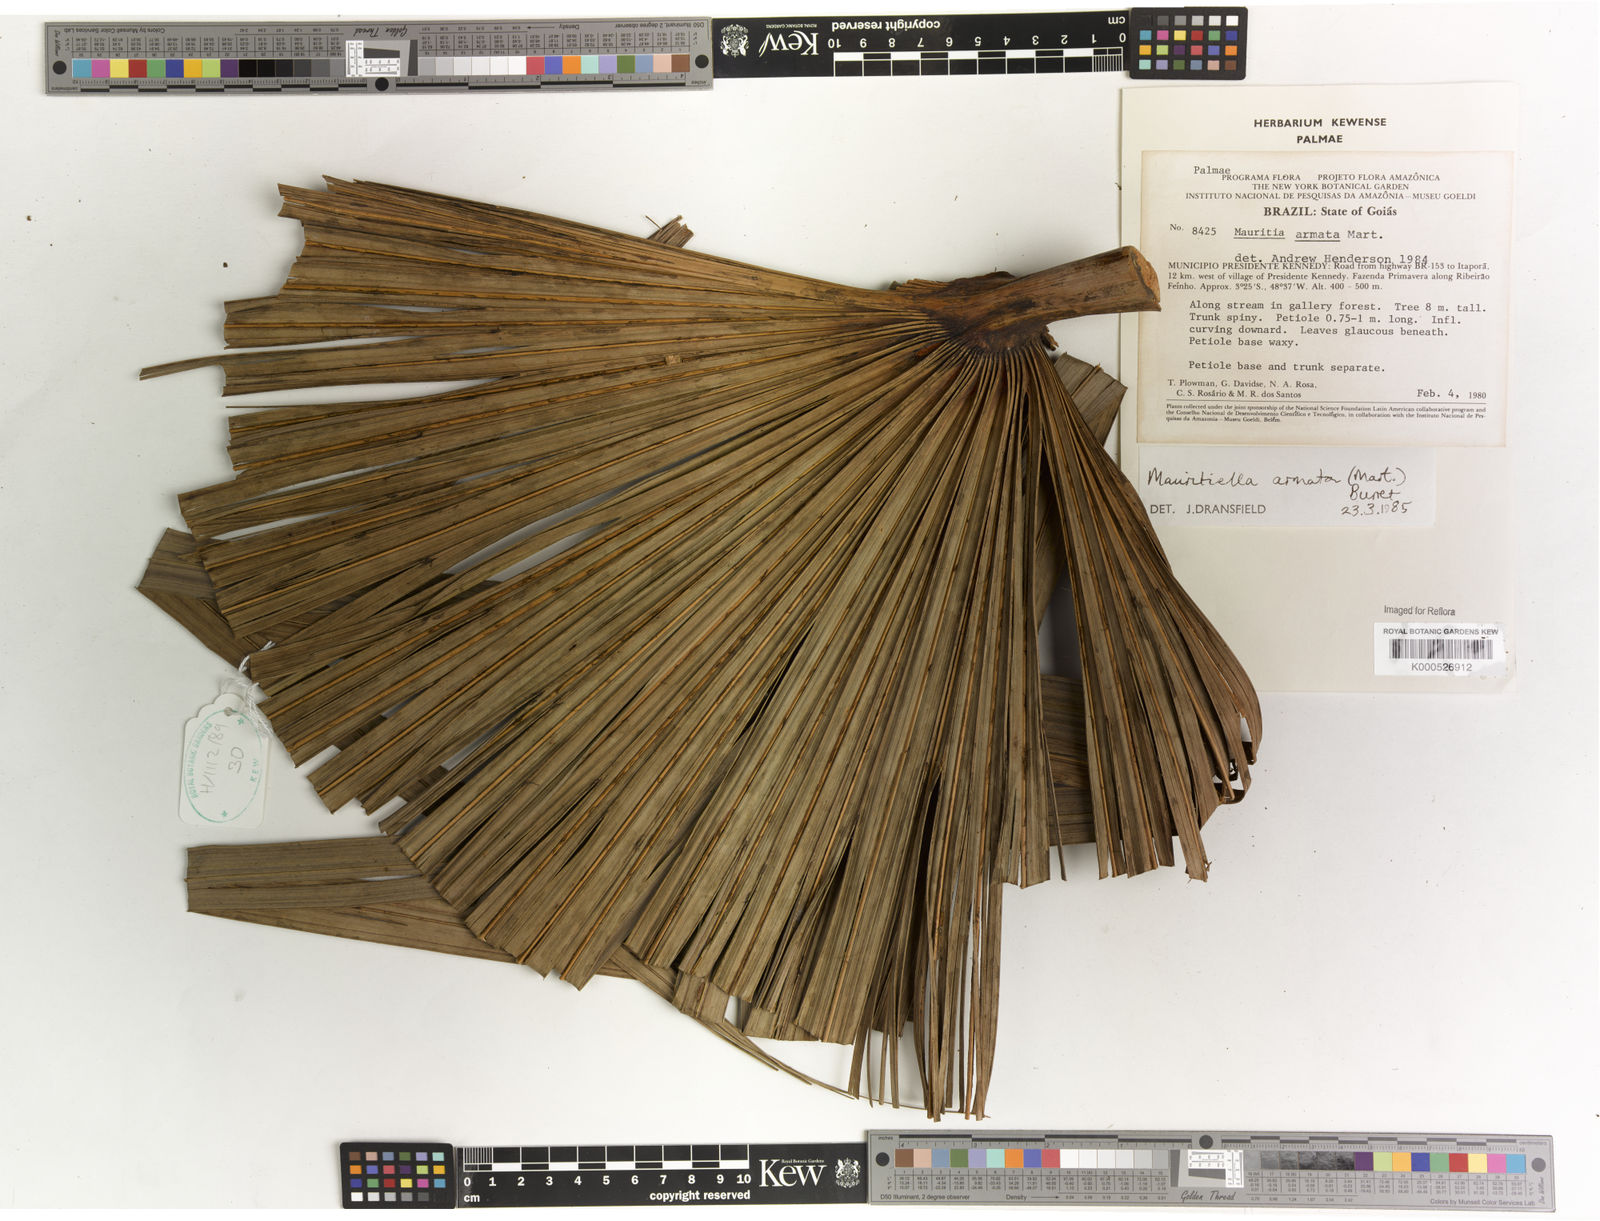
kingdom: Plantae
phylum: Tracheophyta
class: Liliopsida
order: Arecales
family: Arecaceae
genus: Mauritiella
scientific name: Mauritiella armata
